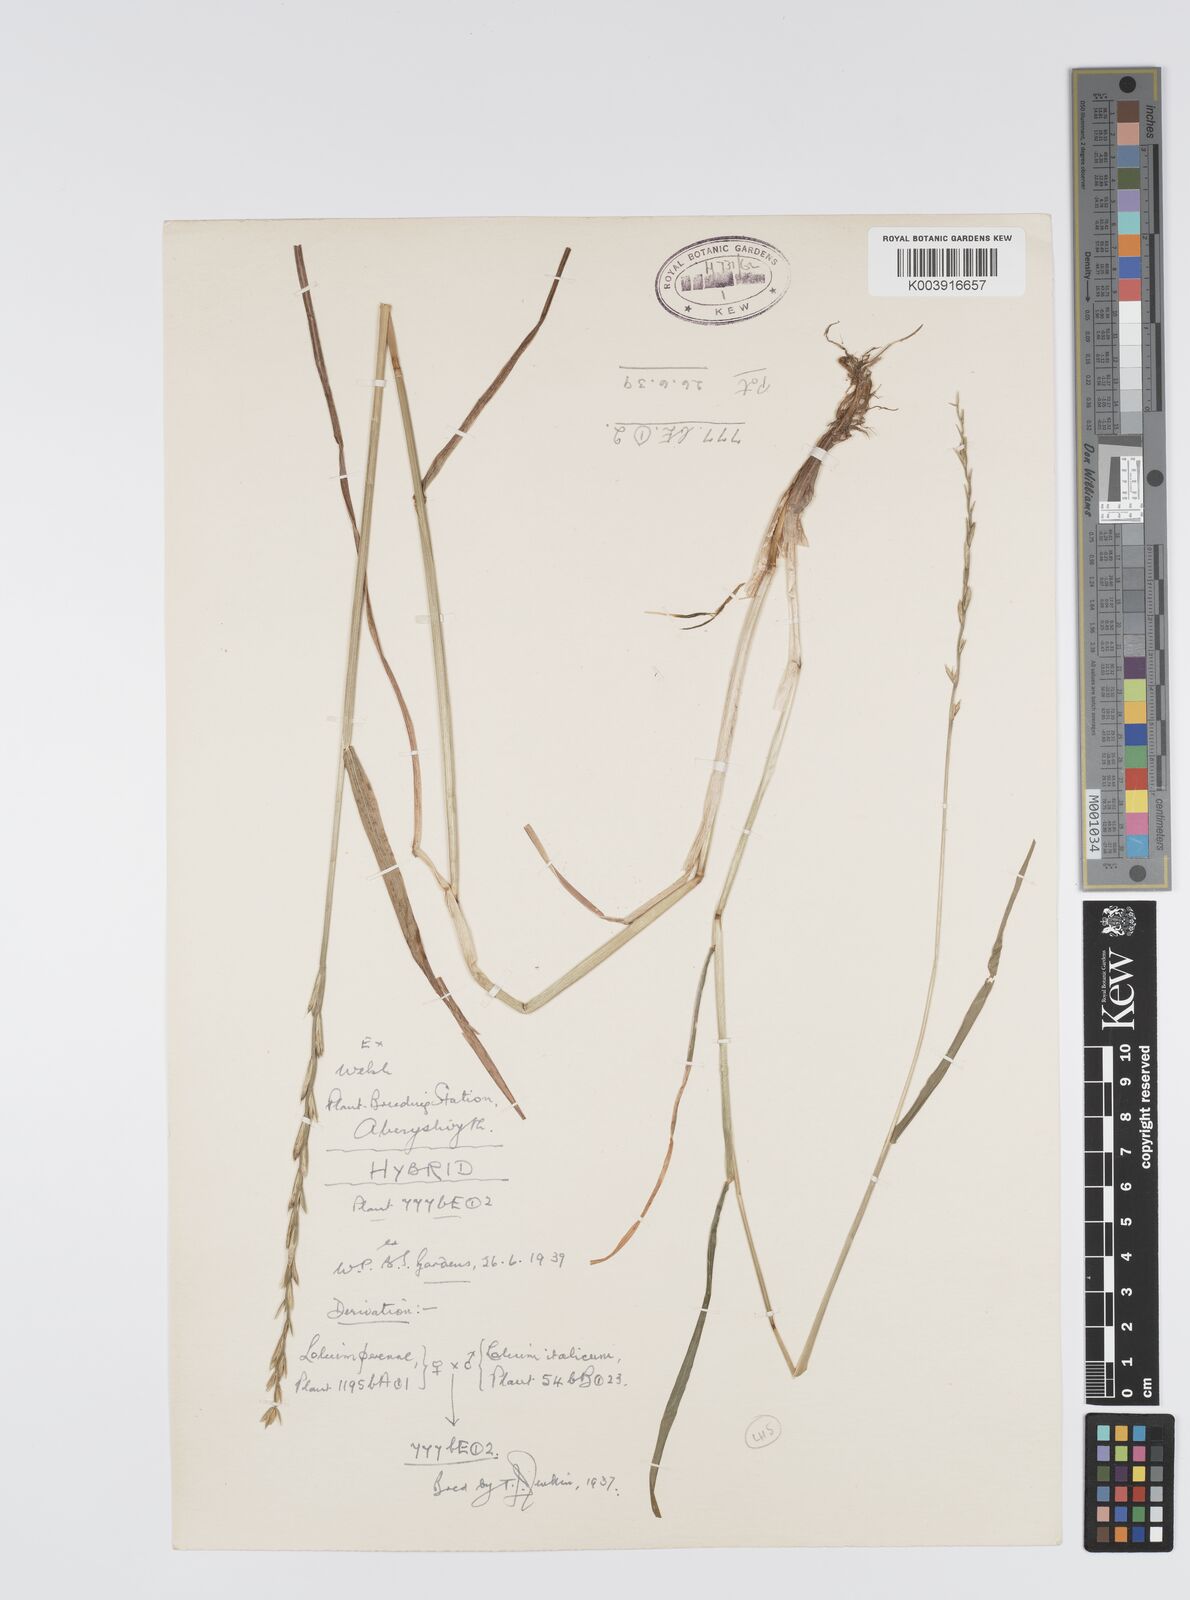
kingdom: Plantae
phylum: Tracheophyta
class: Liliopsida
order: Poales
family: Poaceae
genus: Lolium
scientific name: Lolium perenne
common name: Perennial ryegrass
